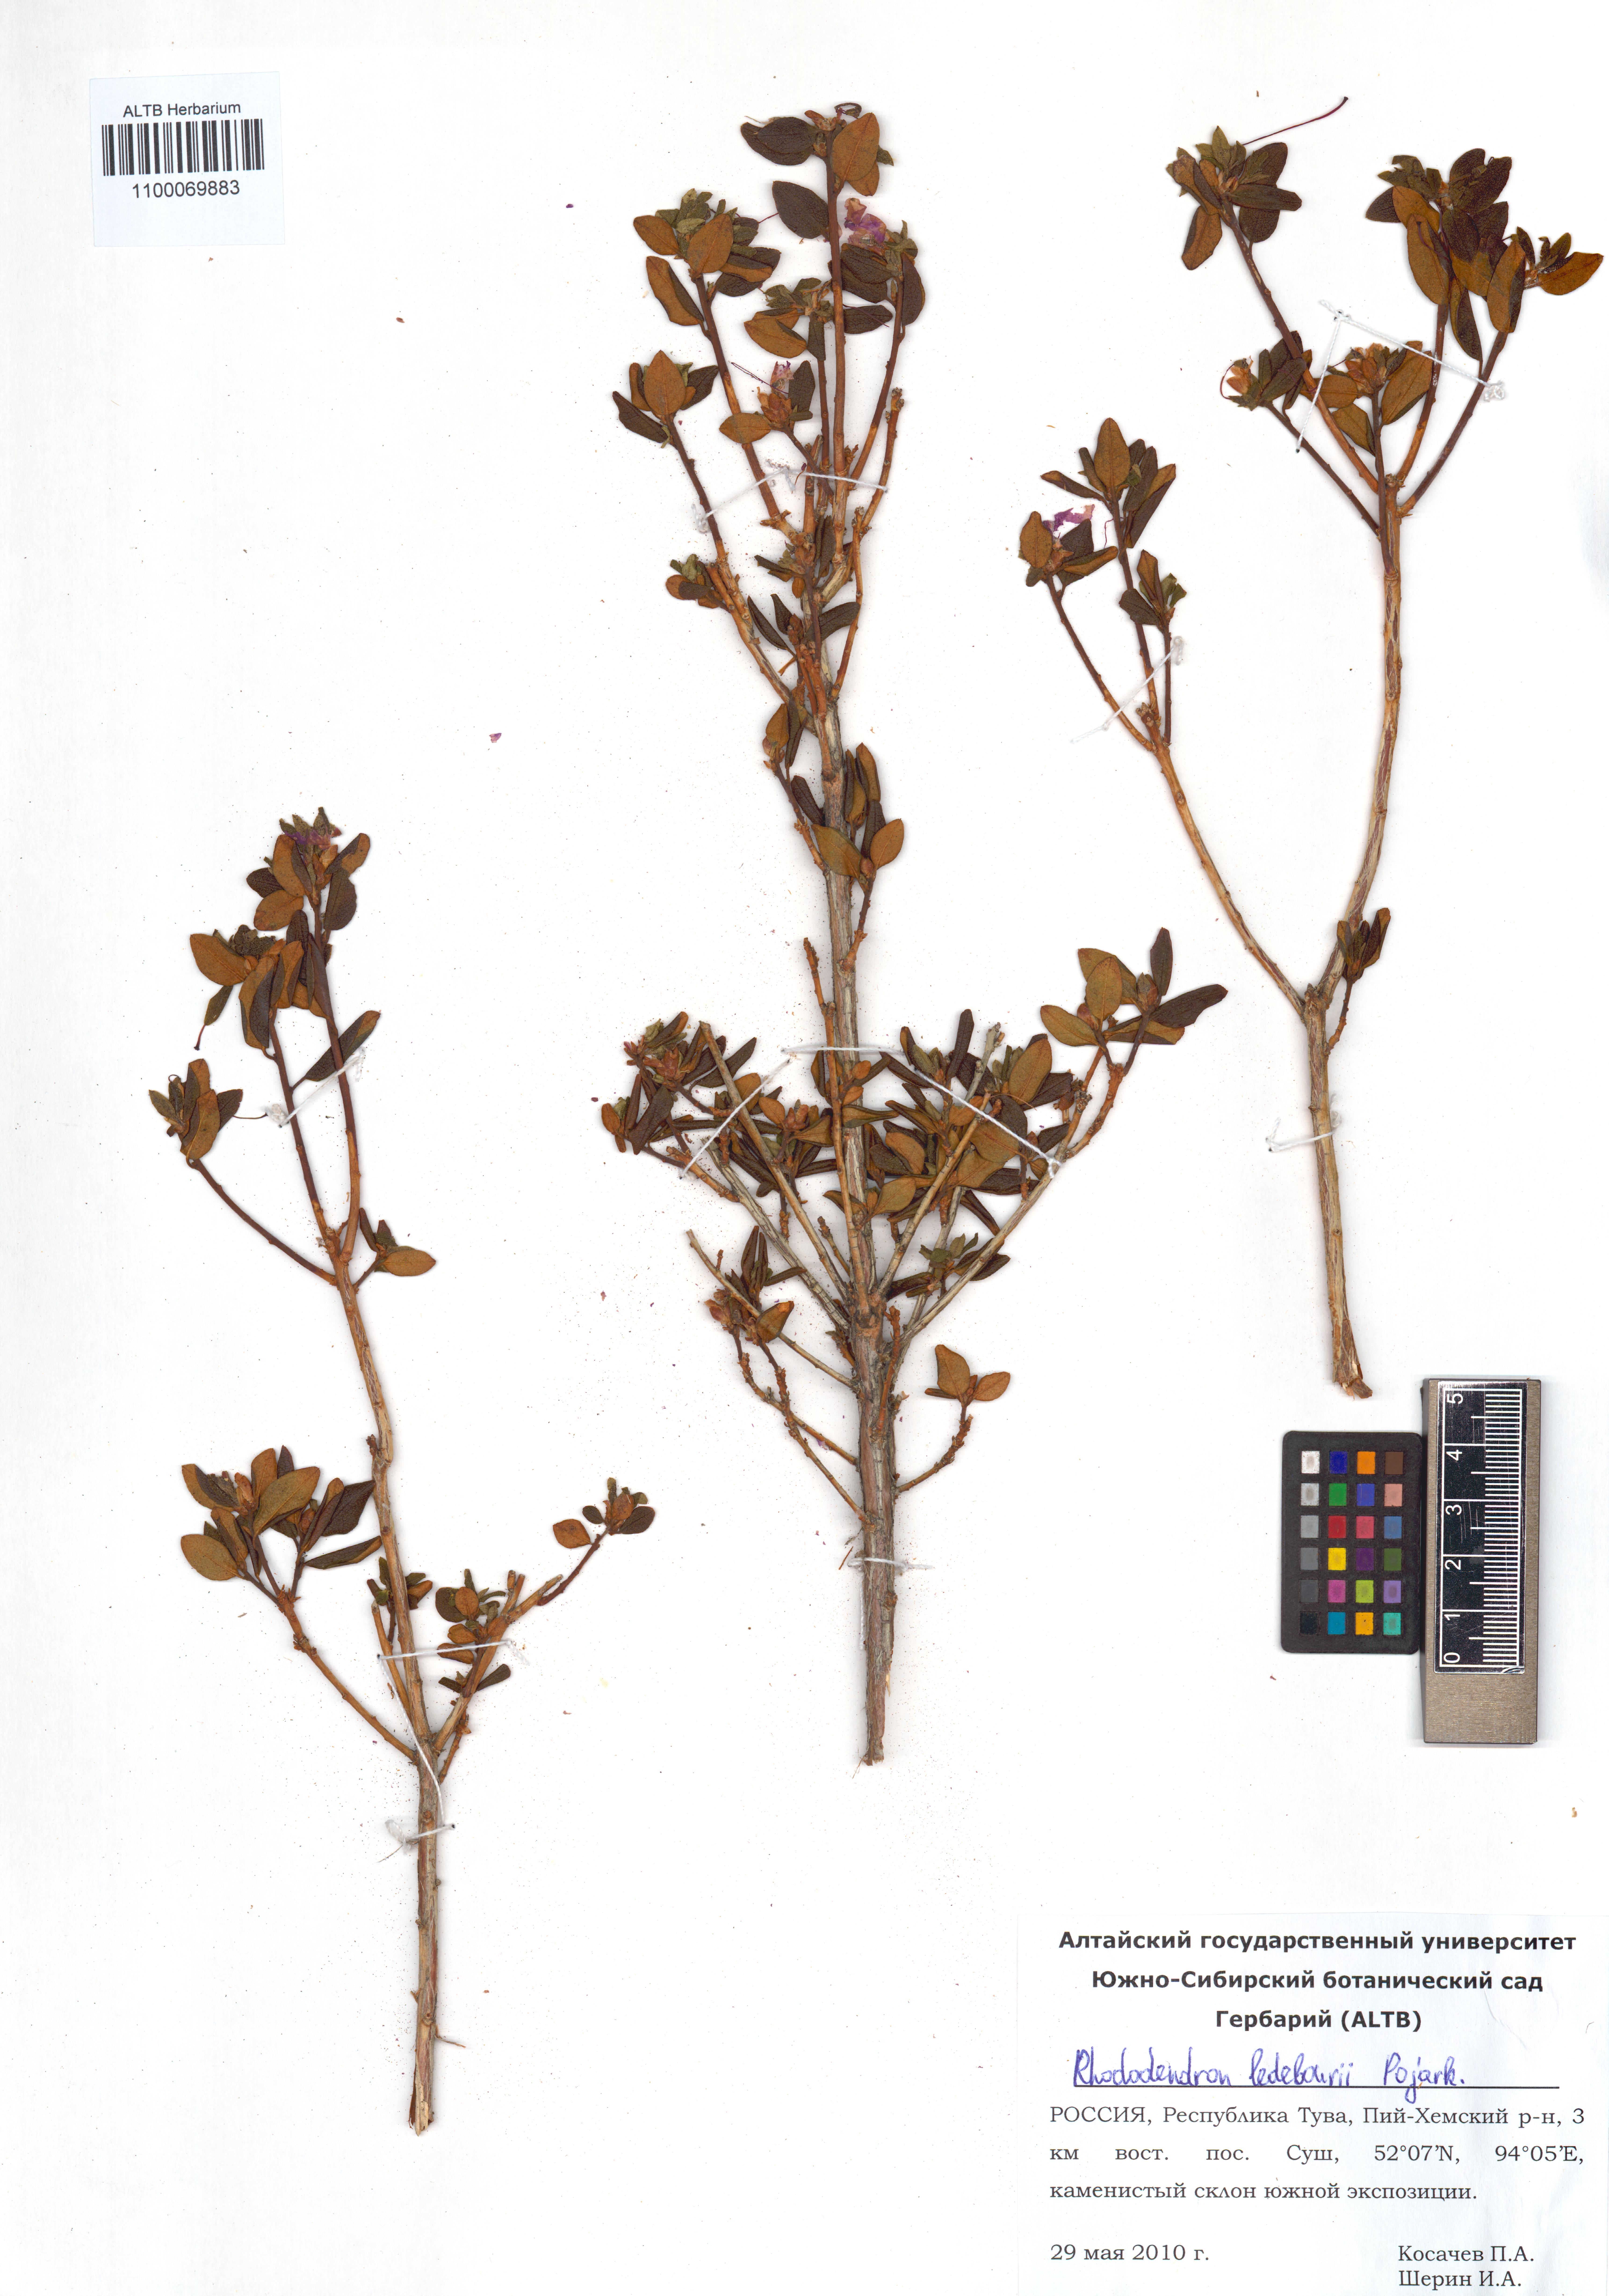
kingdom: Plantae
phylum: Tracheophyta
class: Magnoliopsida
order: Ericales
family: Ericaceae
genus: Rhododendron
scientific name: Rhododendron dauricum
